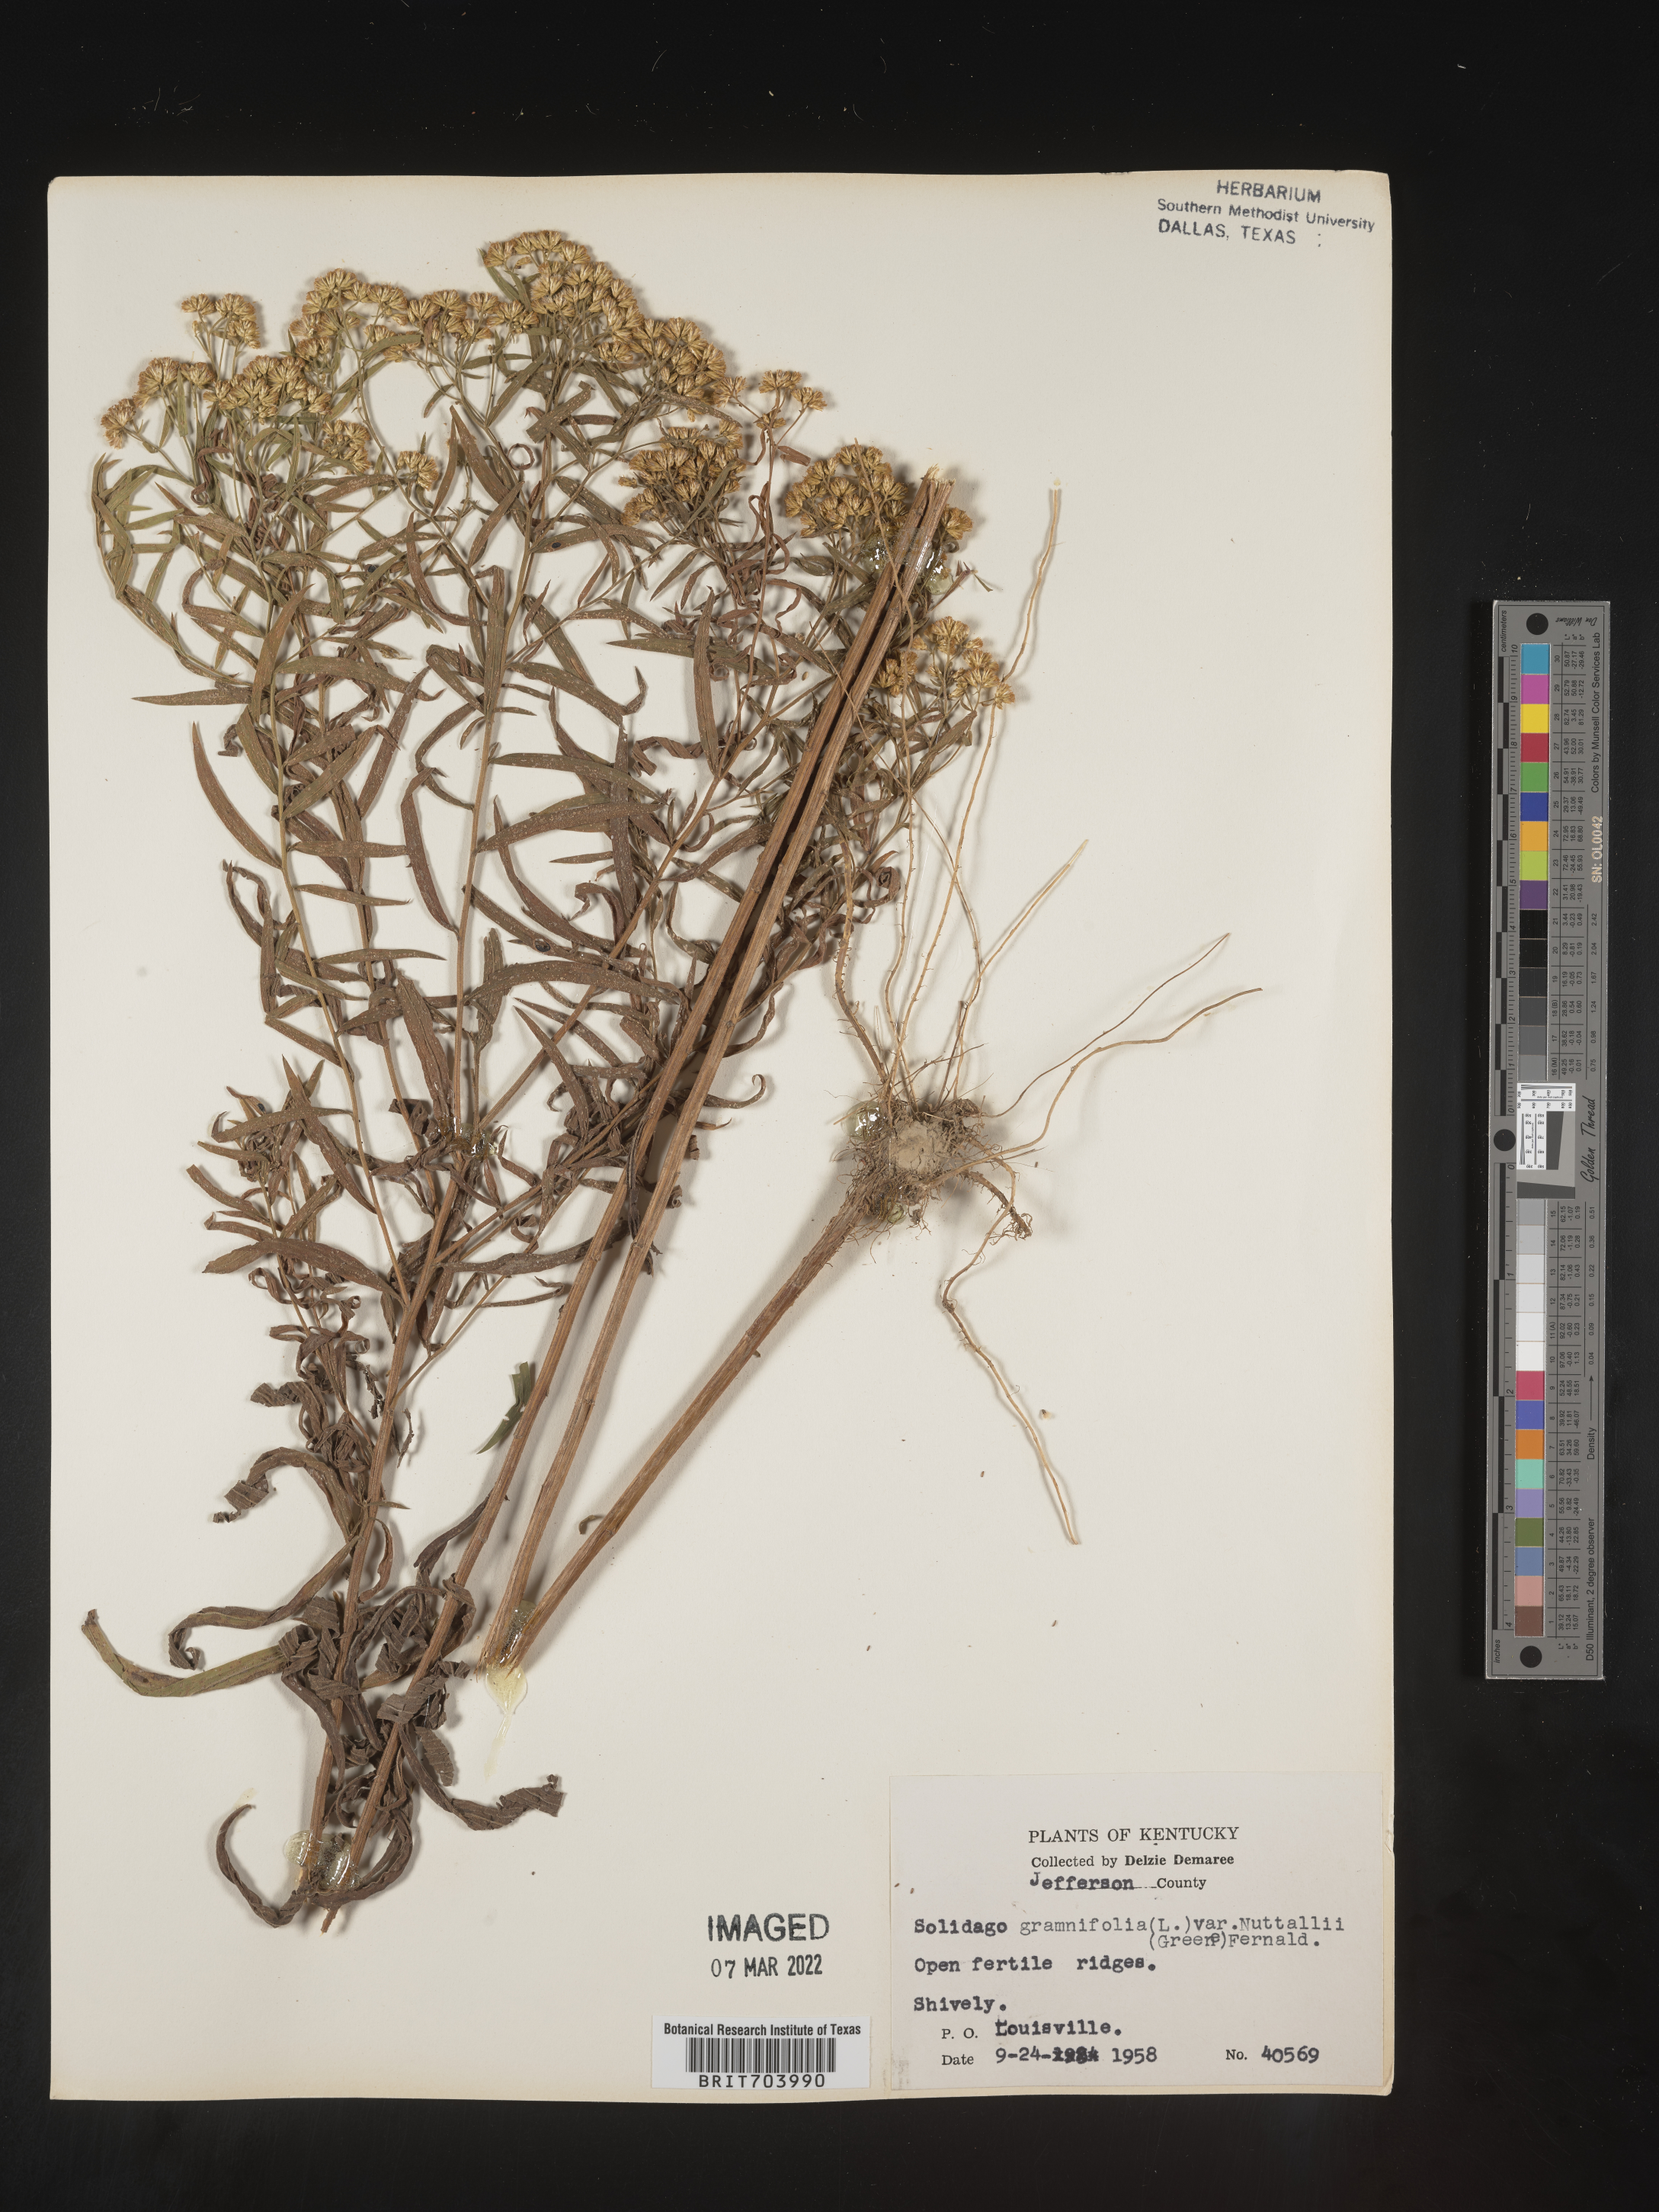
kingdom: Plantae
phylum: Tracheophyta
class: Magnoliopsida
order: Asterales
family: Asteraceae
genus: Euthamia
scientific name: Euthamia graminifolia
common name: Common goldentop
